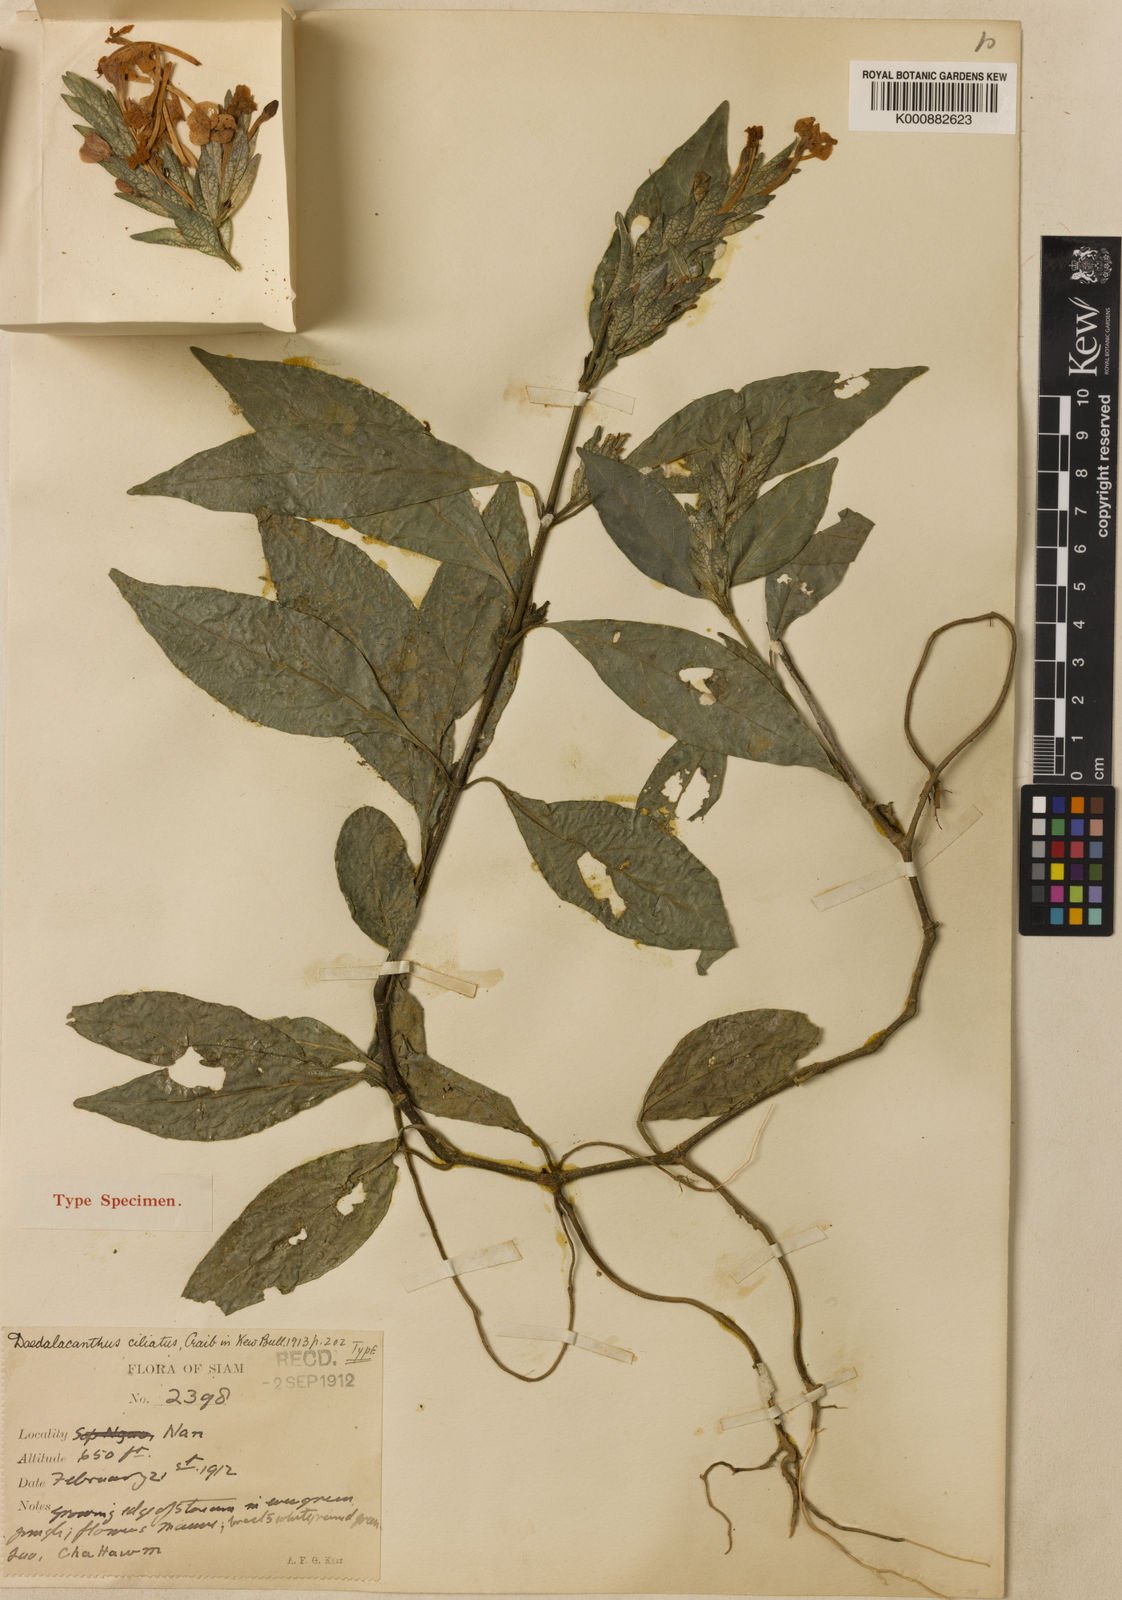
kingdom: Plantae
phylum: Tracheophyta
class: Magnoliopsida
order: Lamiales
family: Acanthaceae
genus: Eranthemum
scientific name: Eranthemum ciliatum
